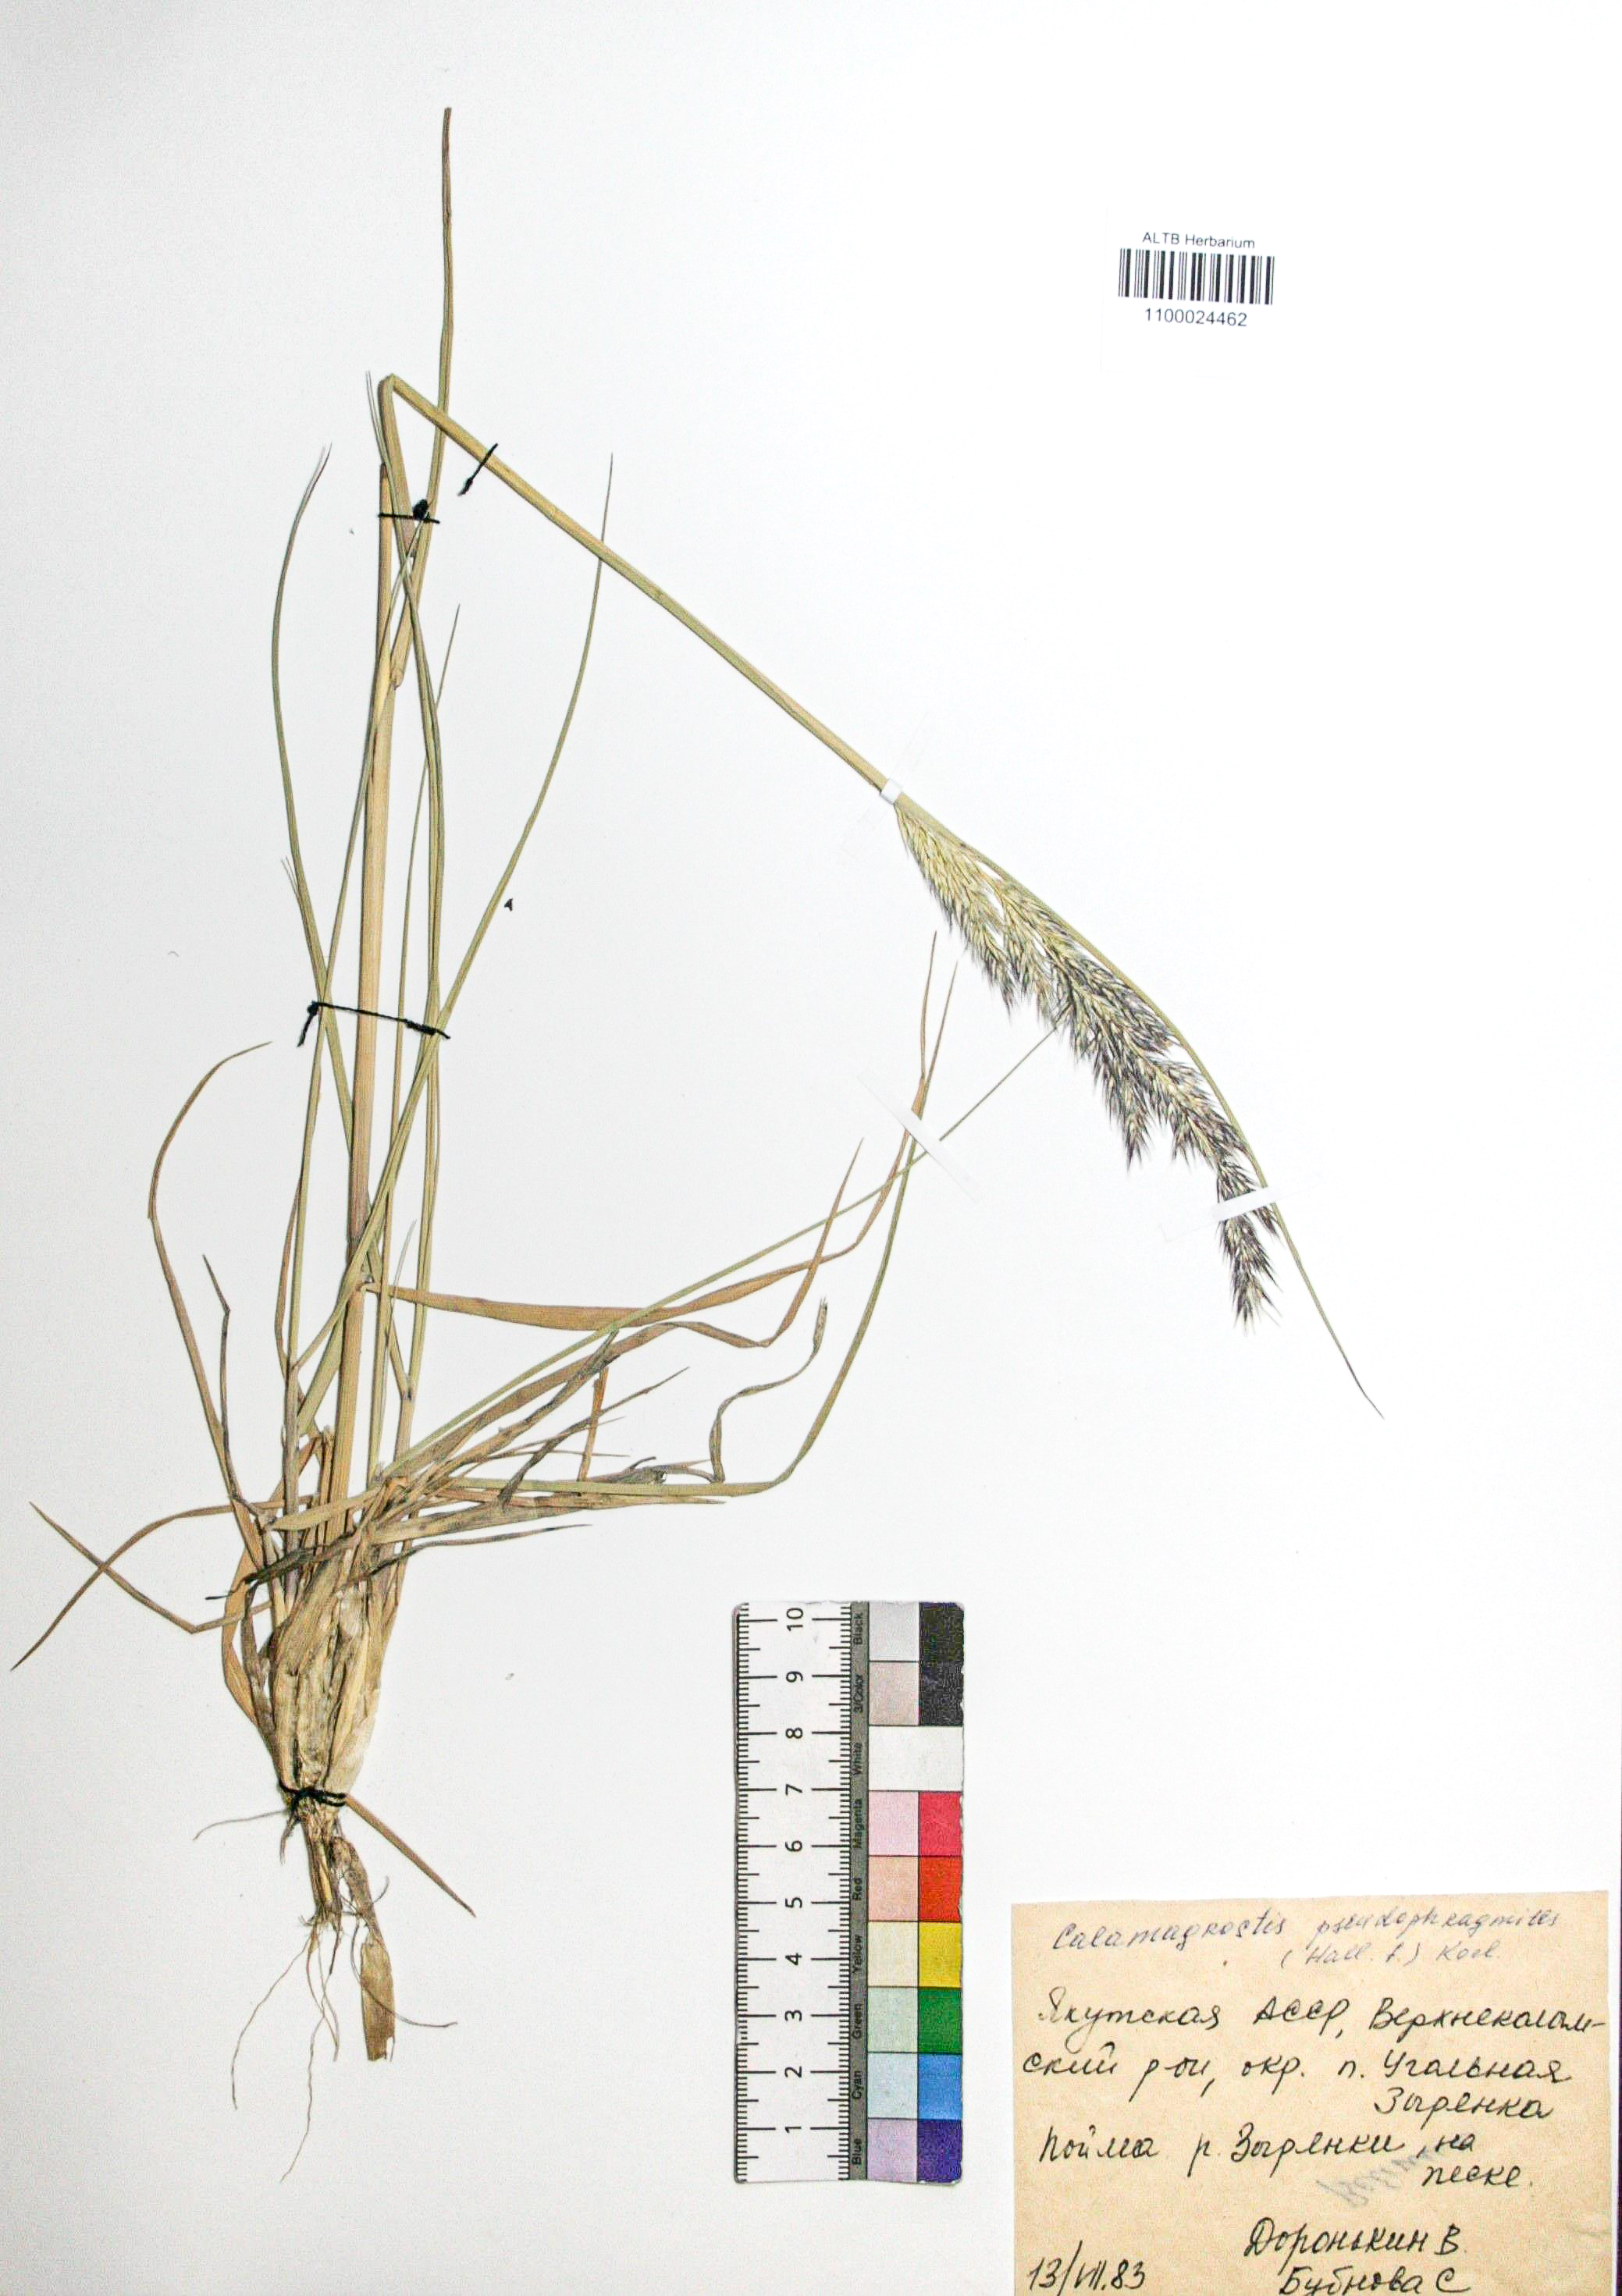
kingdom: Plantae
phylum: Tracheophyta
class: Liliopsida
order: Poales
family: Poaceae
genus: Calamagrostis
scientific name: Calamagrostis pseudophragmites
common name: Coastal small-reed
